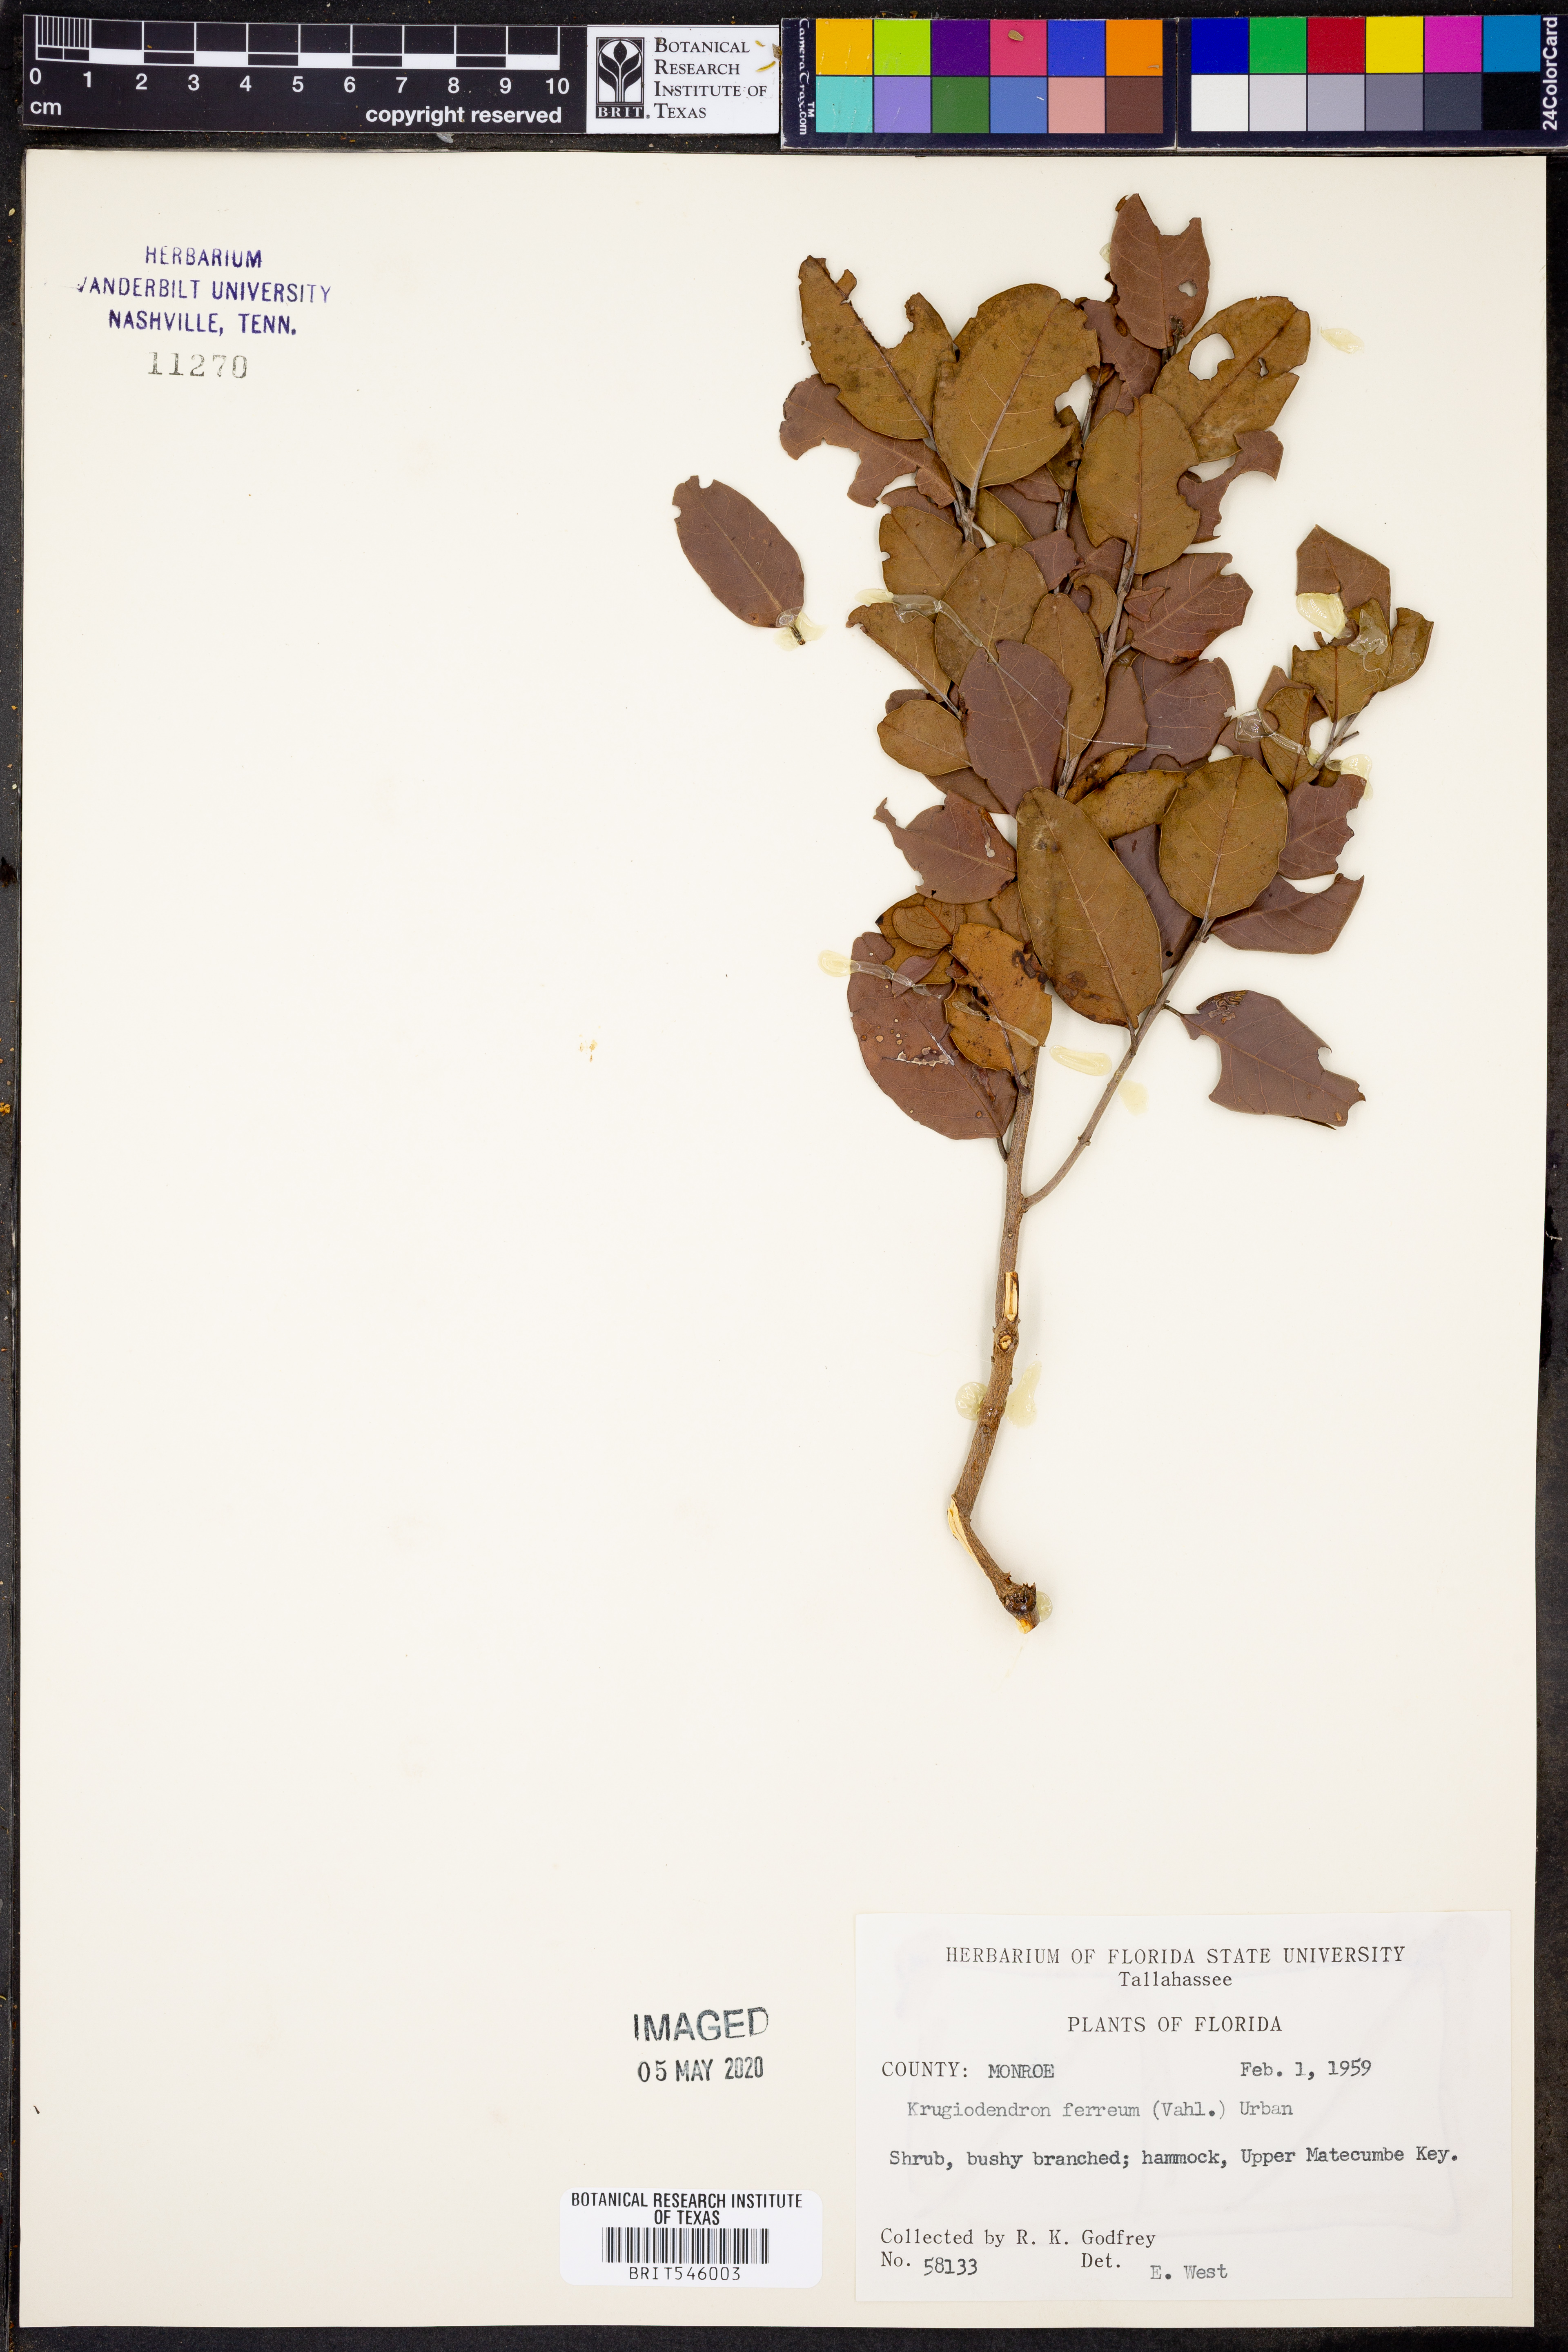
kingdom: Plantae
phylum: Tracheophyta
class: Magnoliopsida
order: Rosales
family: Rhamnaceae
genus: Krugiodendron
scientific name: Krugiodendron ferreum
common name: Iron wood
